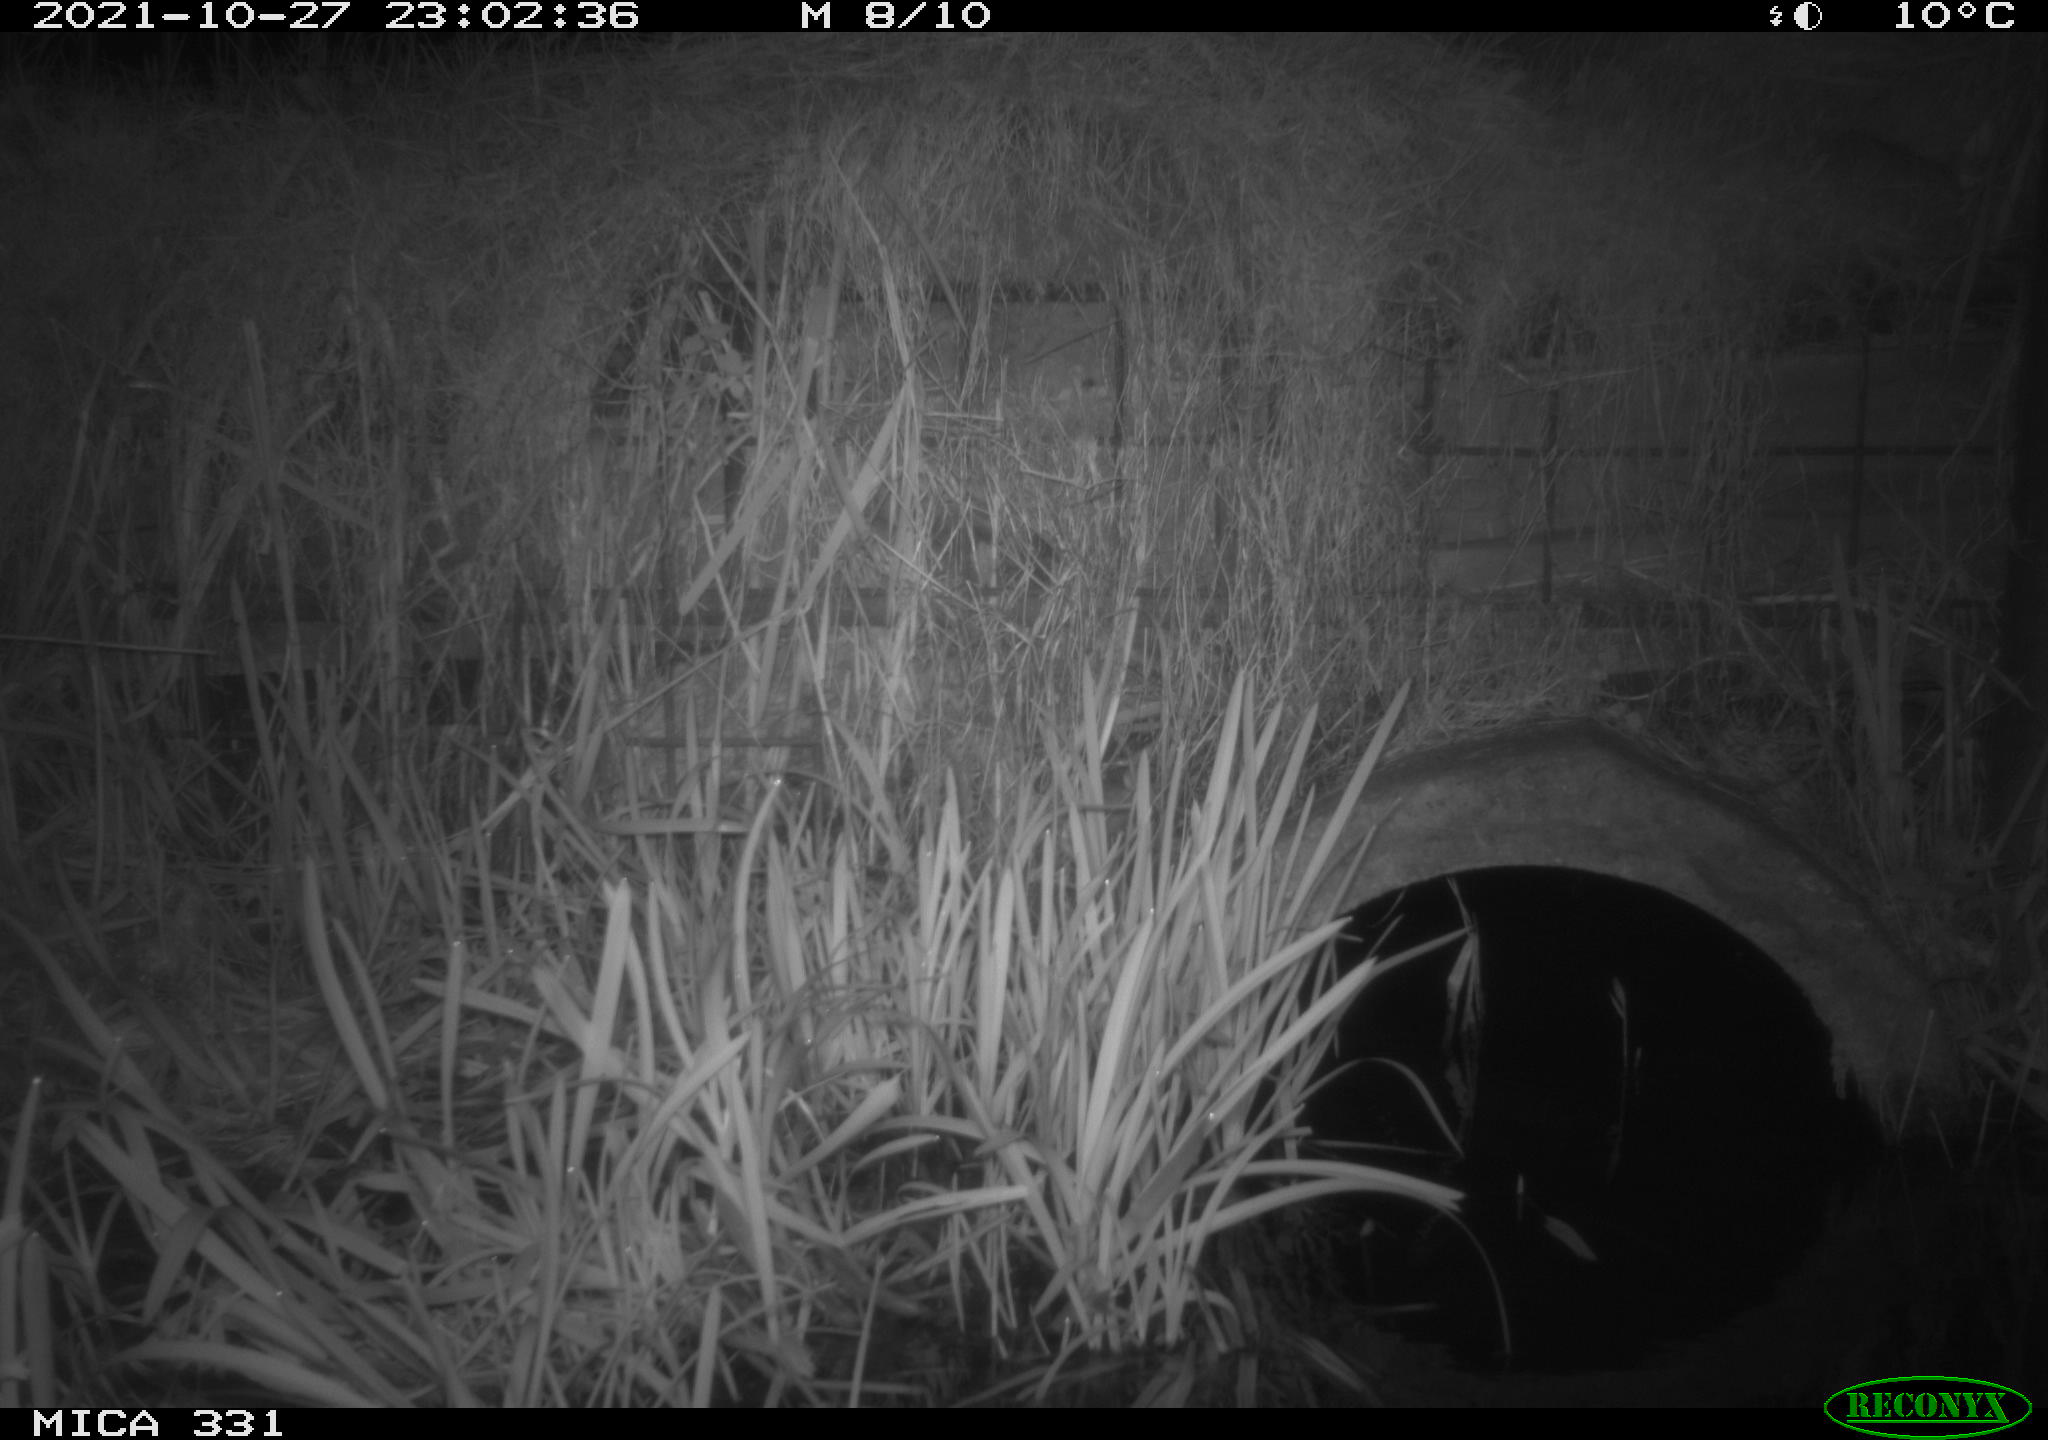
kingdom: Animalia
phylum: Chordata
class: Mammalia
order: Rodentia
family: Muridae
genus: Rattus
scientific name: Rattus norvegicus
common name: Brown rat
